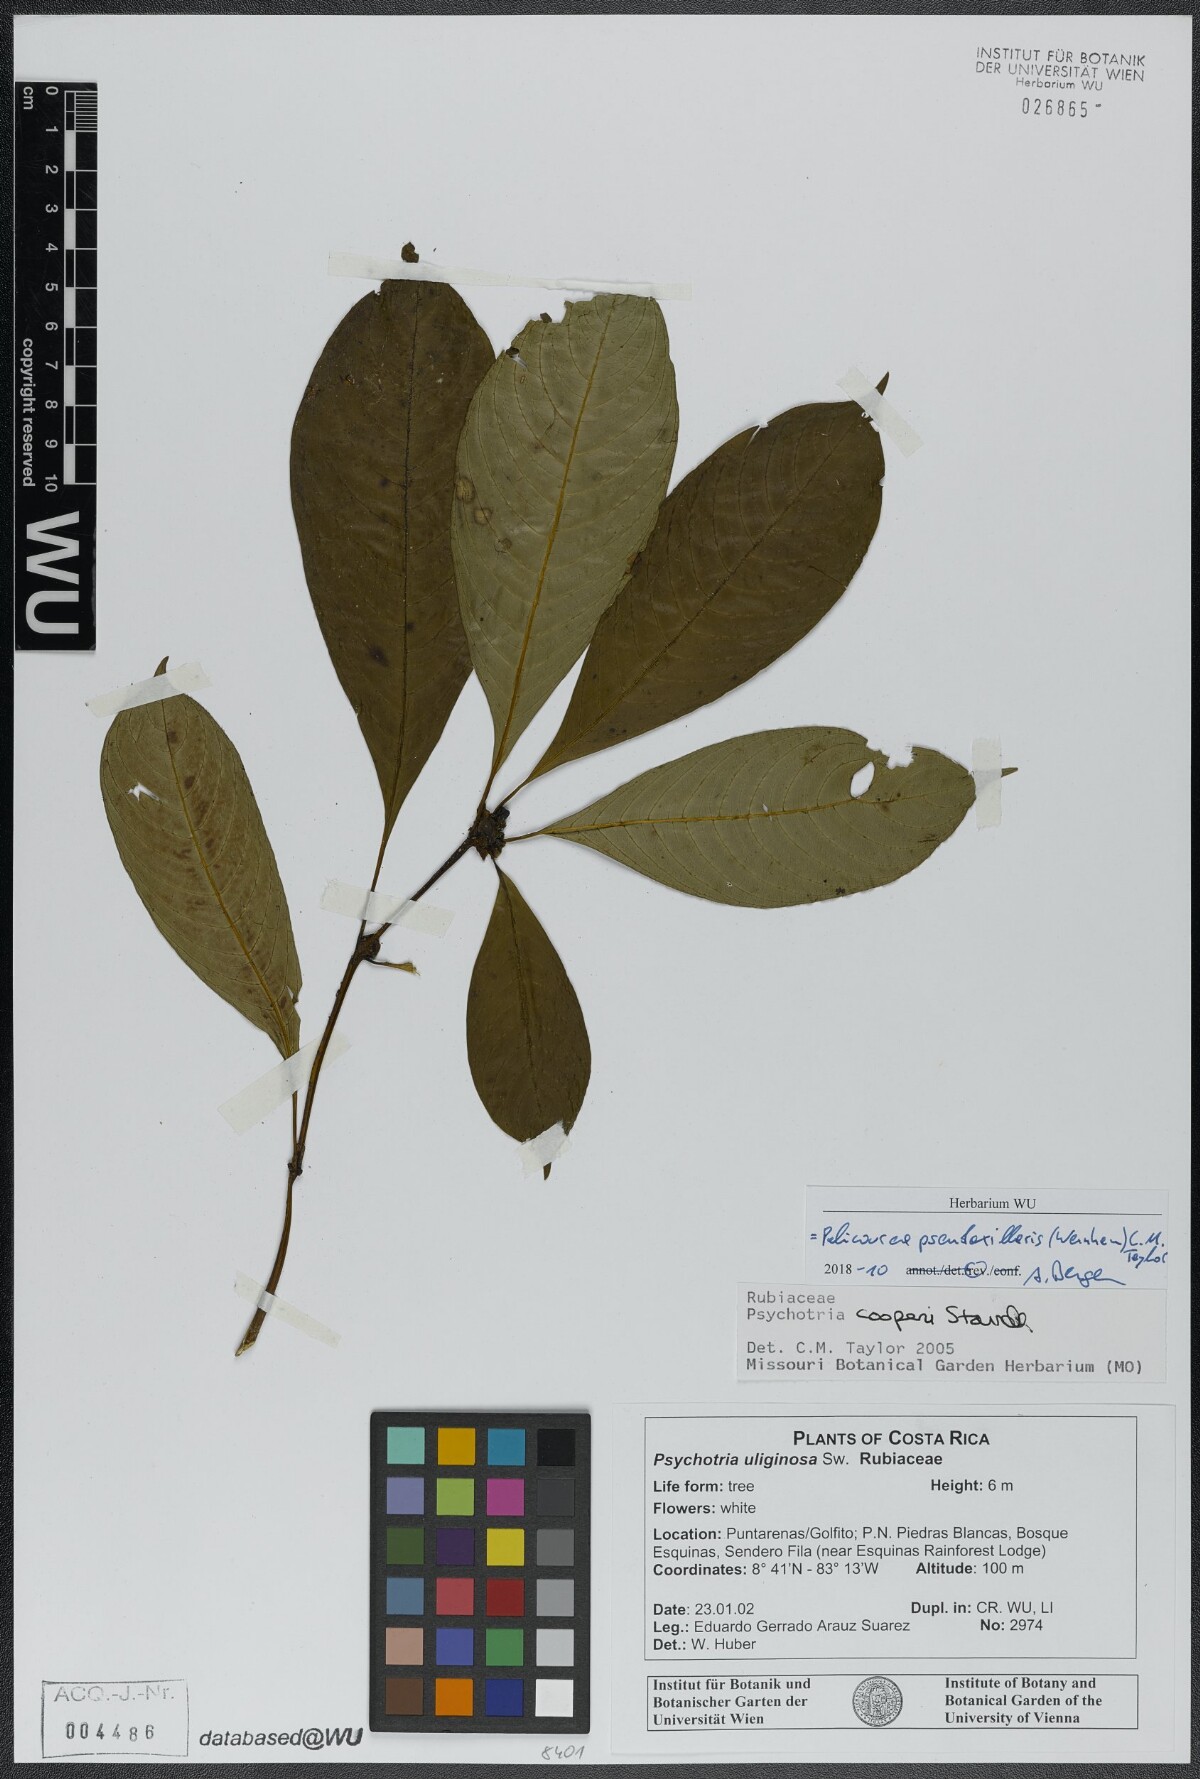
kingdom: Plantae
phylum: Tracheophyta
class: Magnoliopsida
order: Gentianales
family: Rubiaceae
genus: Palicourea
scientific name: Palicourea pseudaxillaris
